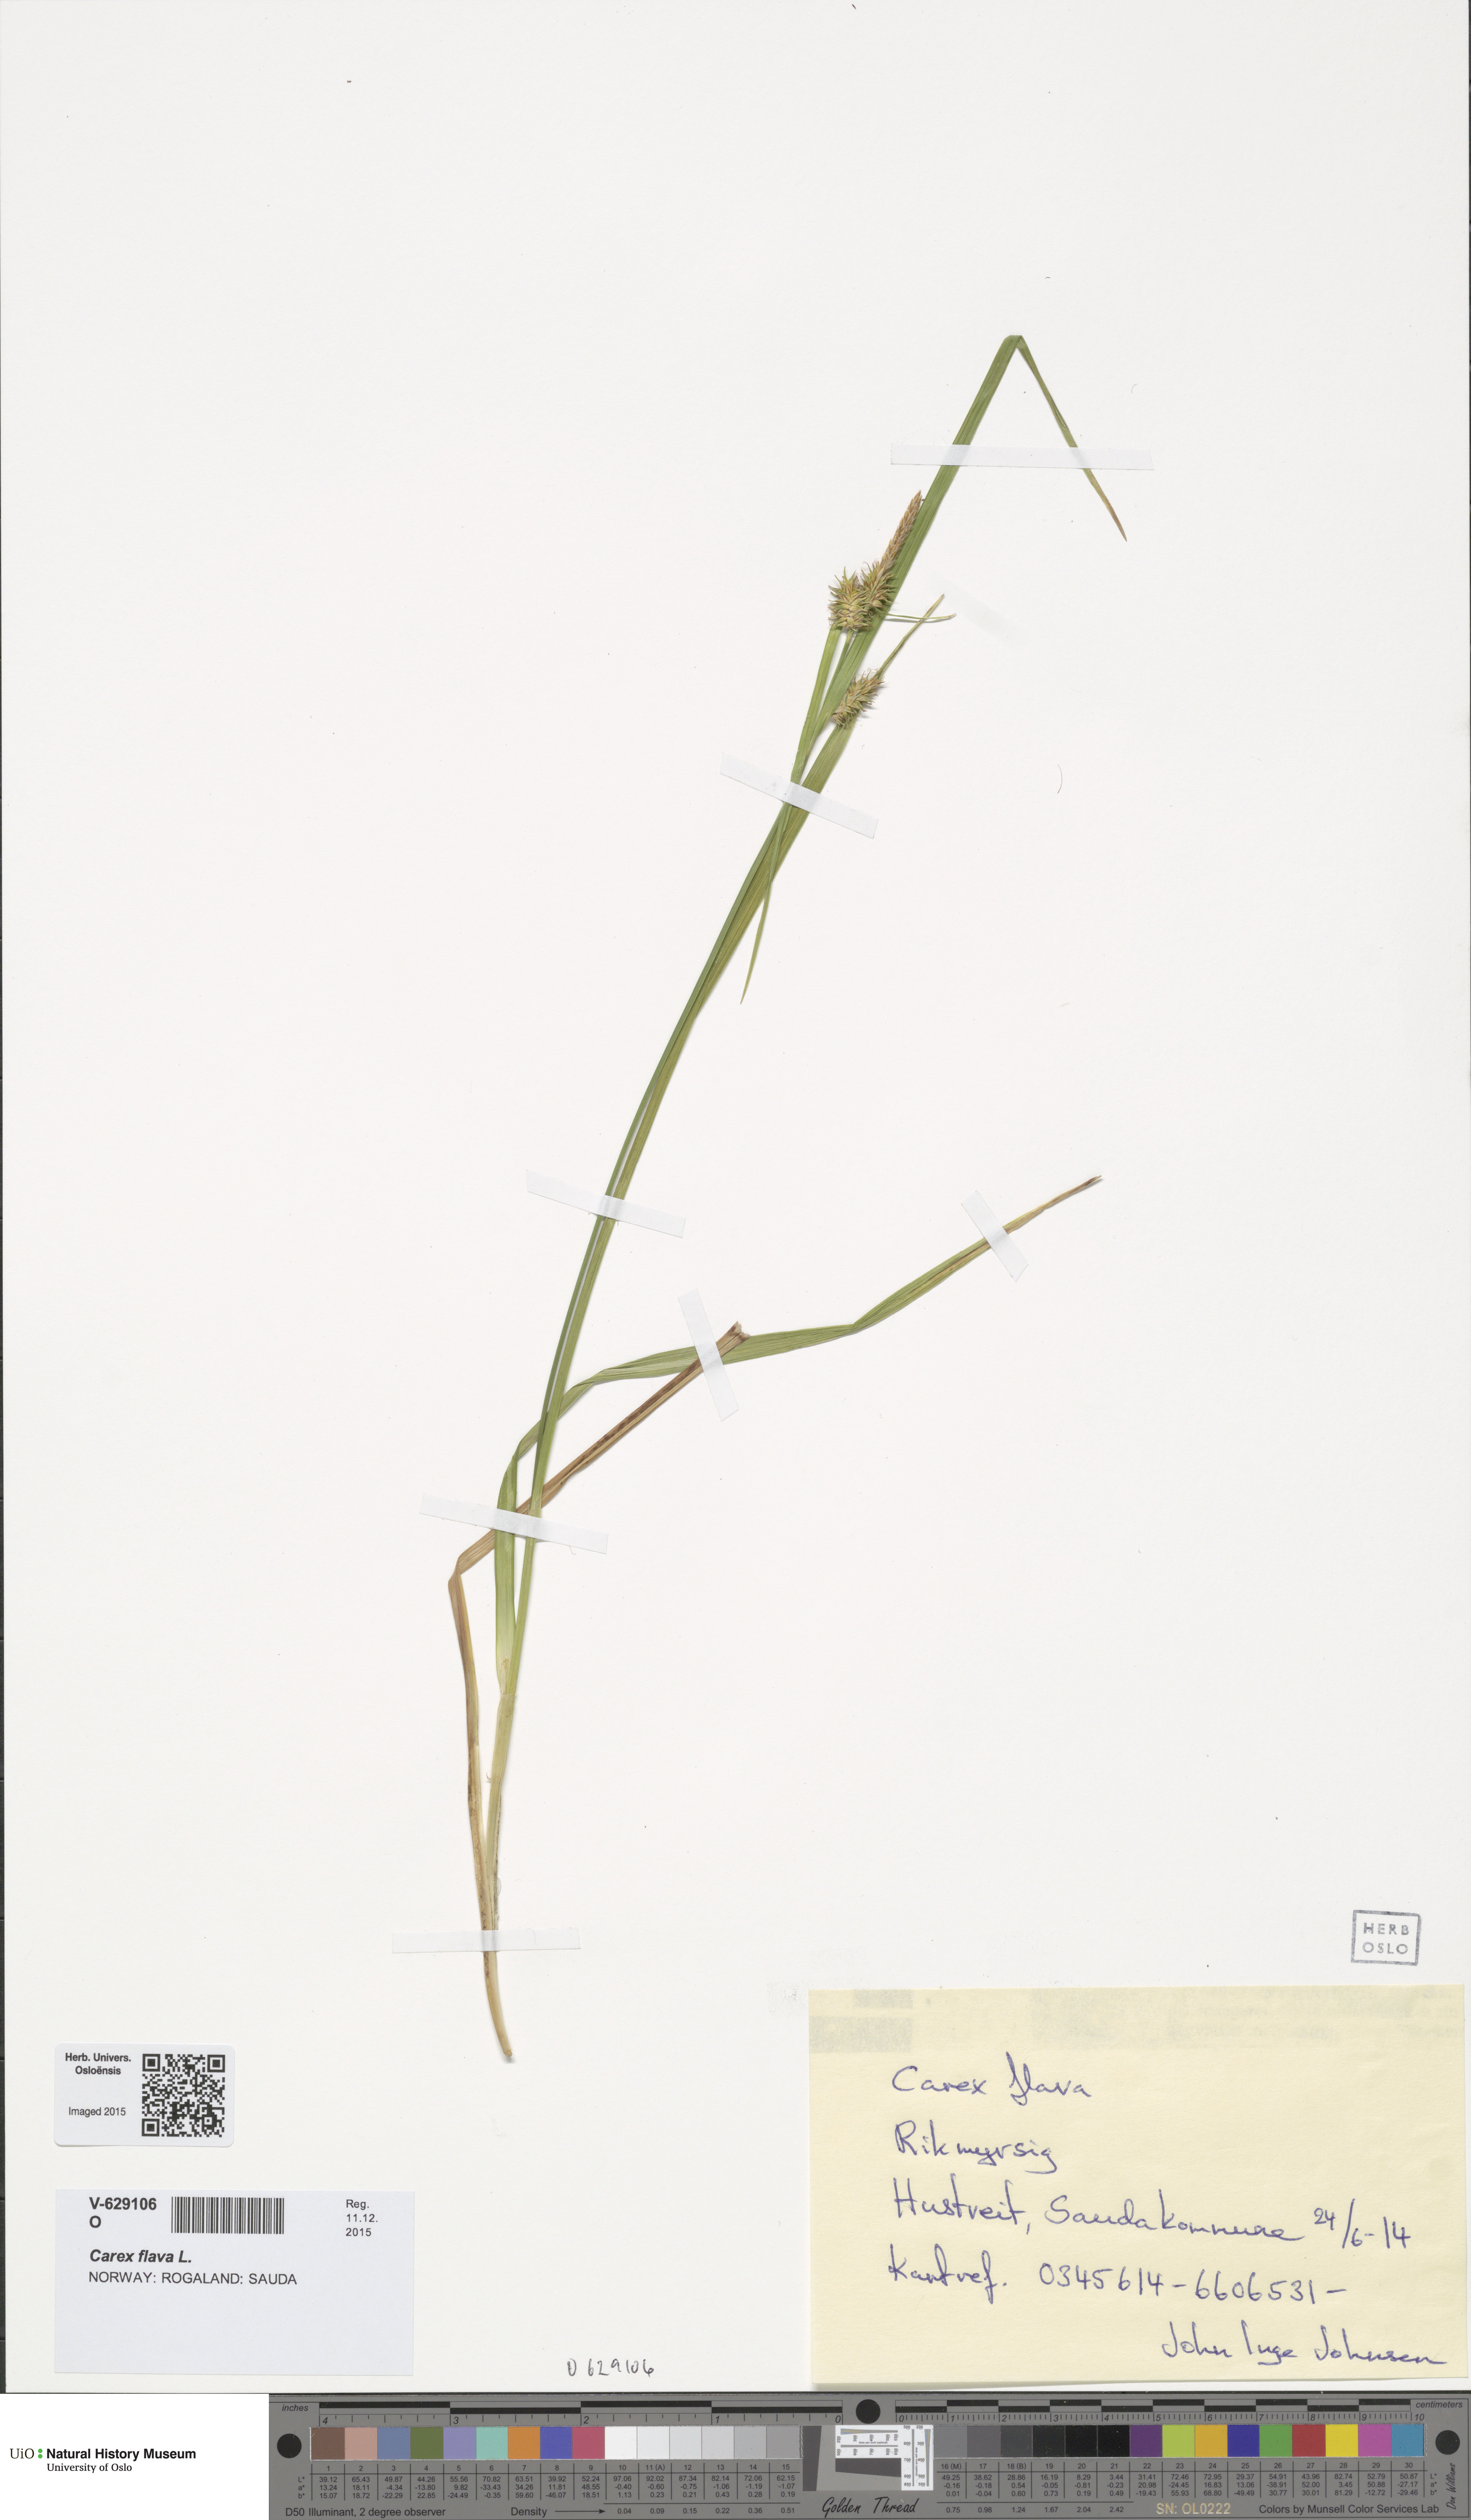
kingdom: Plantae
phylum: Tracheophyta
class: Liliopsida
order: Poales
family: Cyperaceae
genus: Carex
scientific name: Carex flava
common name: Large yellow-sedge
